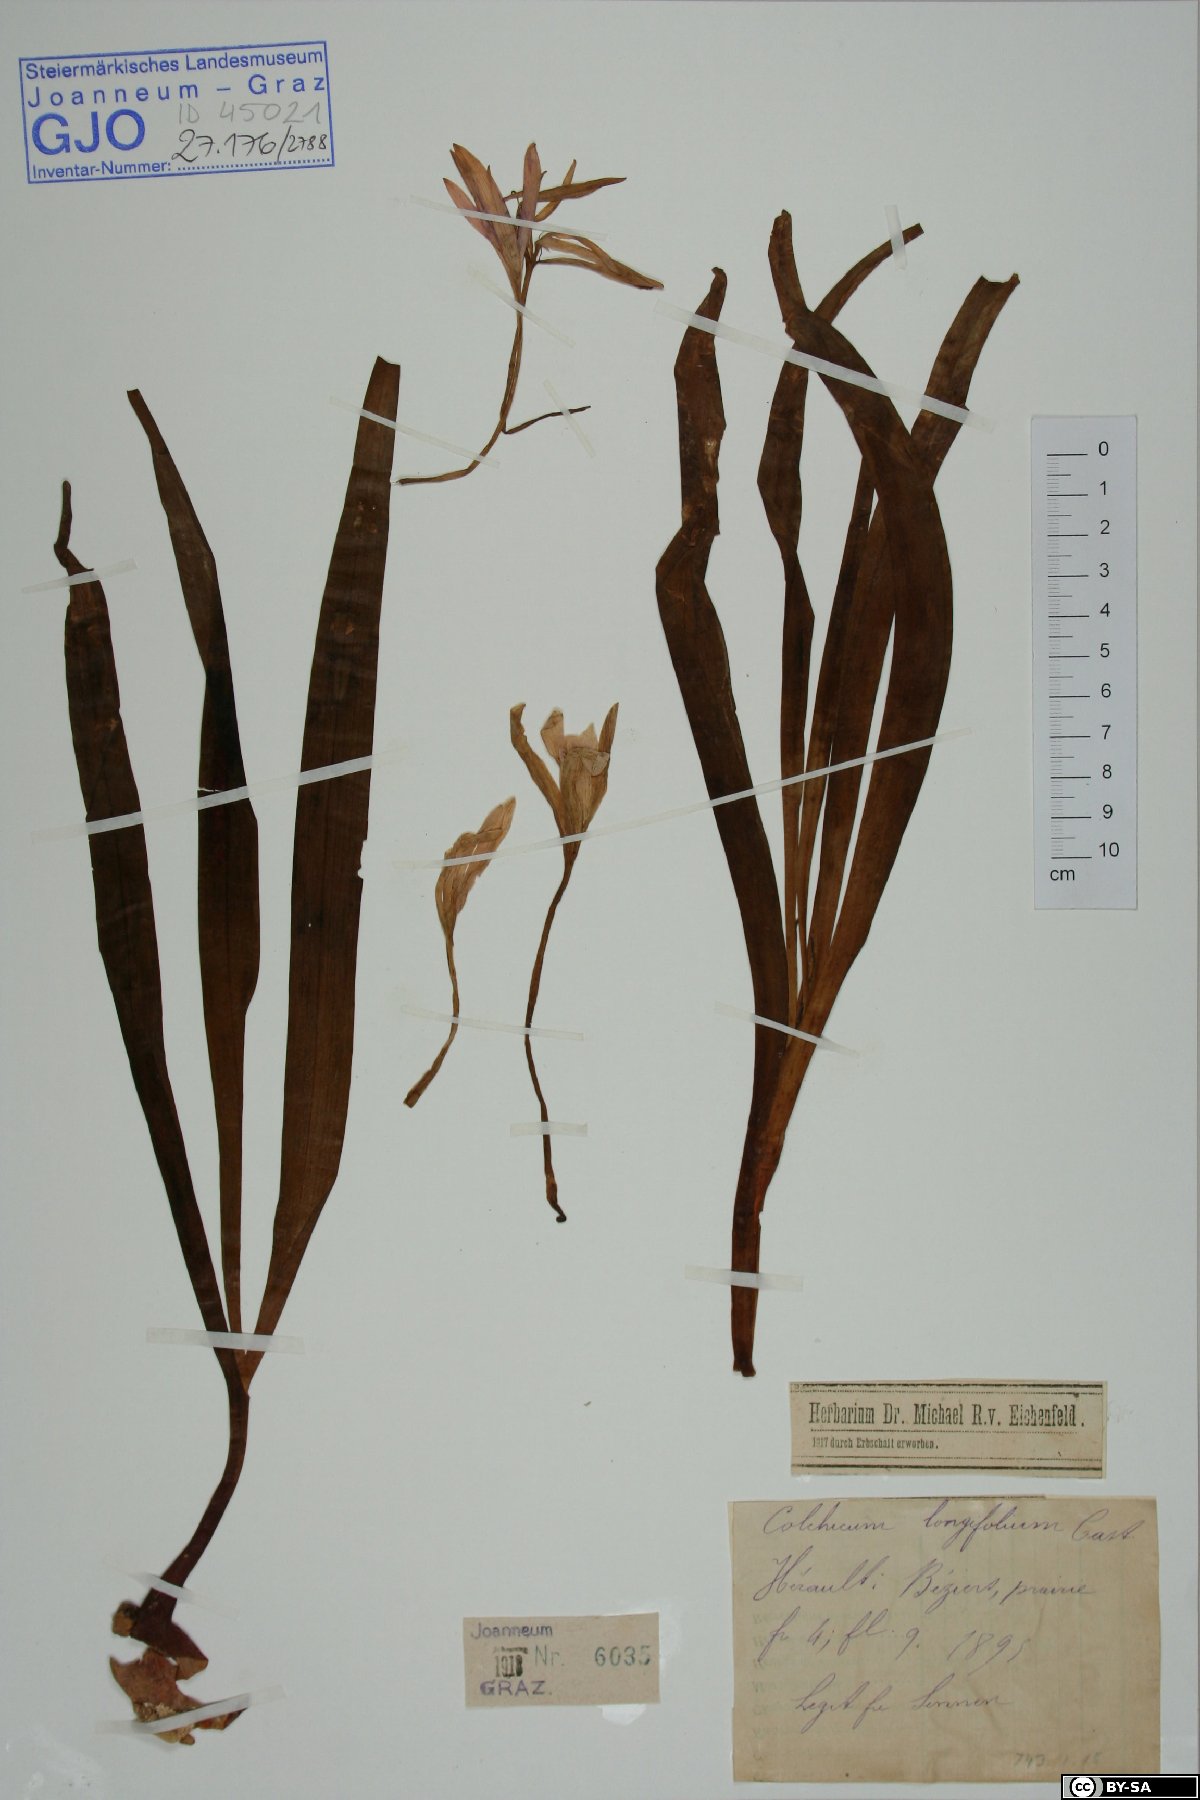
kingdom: Plantae
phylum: Tracheophyta
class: Liliopsida
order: Liliales
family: Colchicaceae
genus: Colchicum
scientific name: Colchicum longifolium
